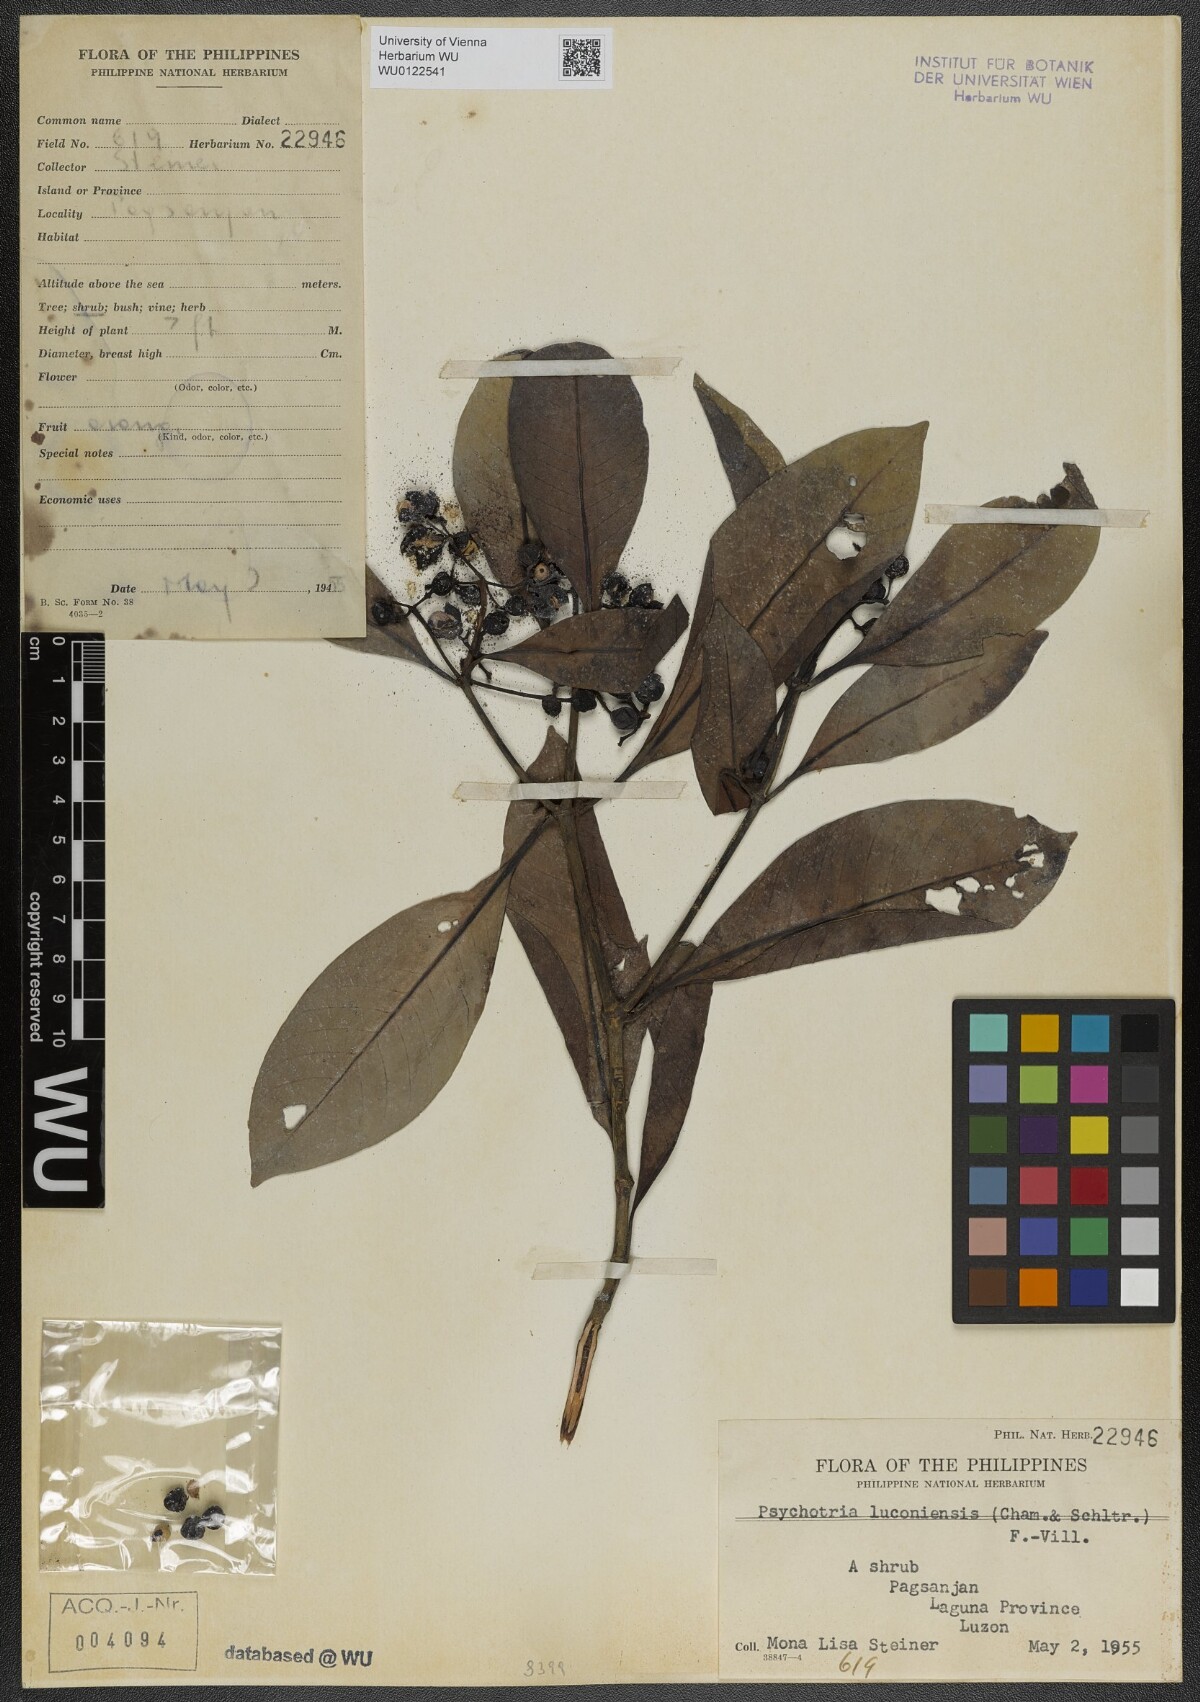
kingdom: Plantae
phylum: Tracheophyta
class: Magnoliopsida
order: Gentianales
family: Rubiaceae
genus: Psychotria
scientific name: Psychotria luzoniensis
